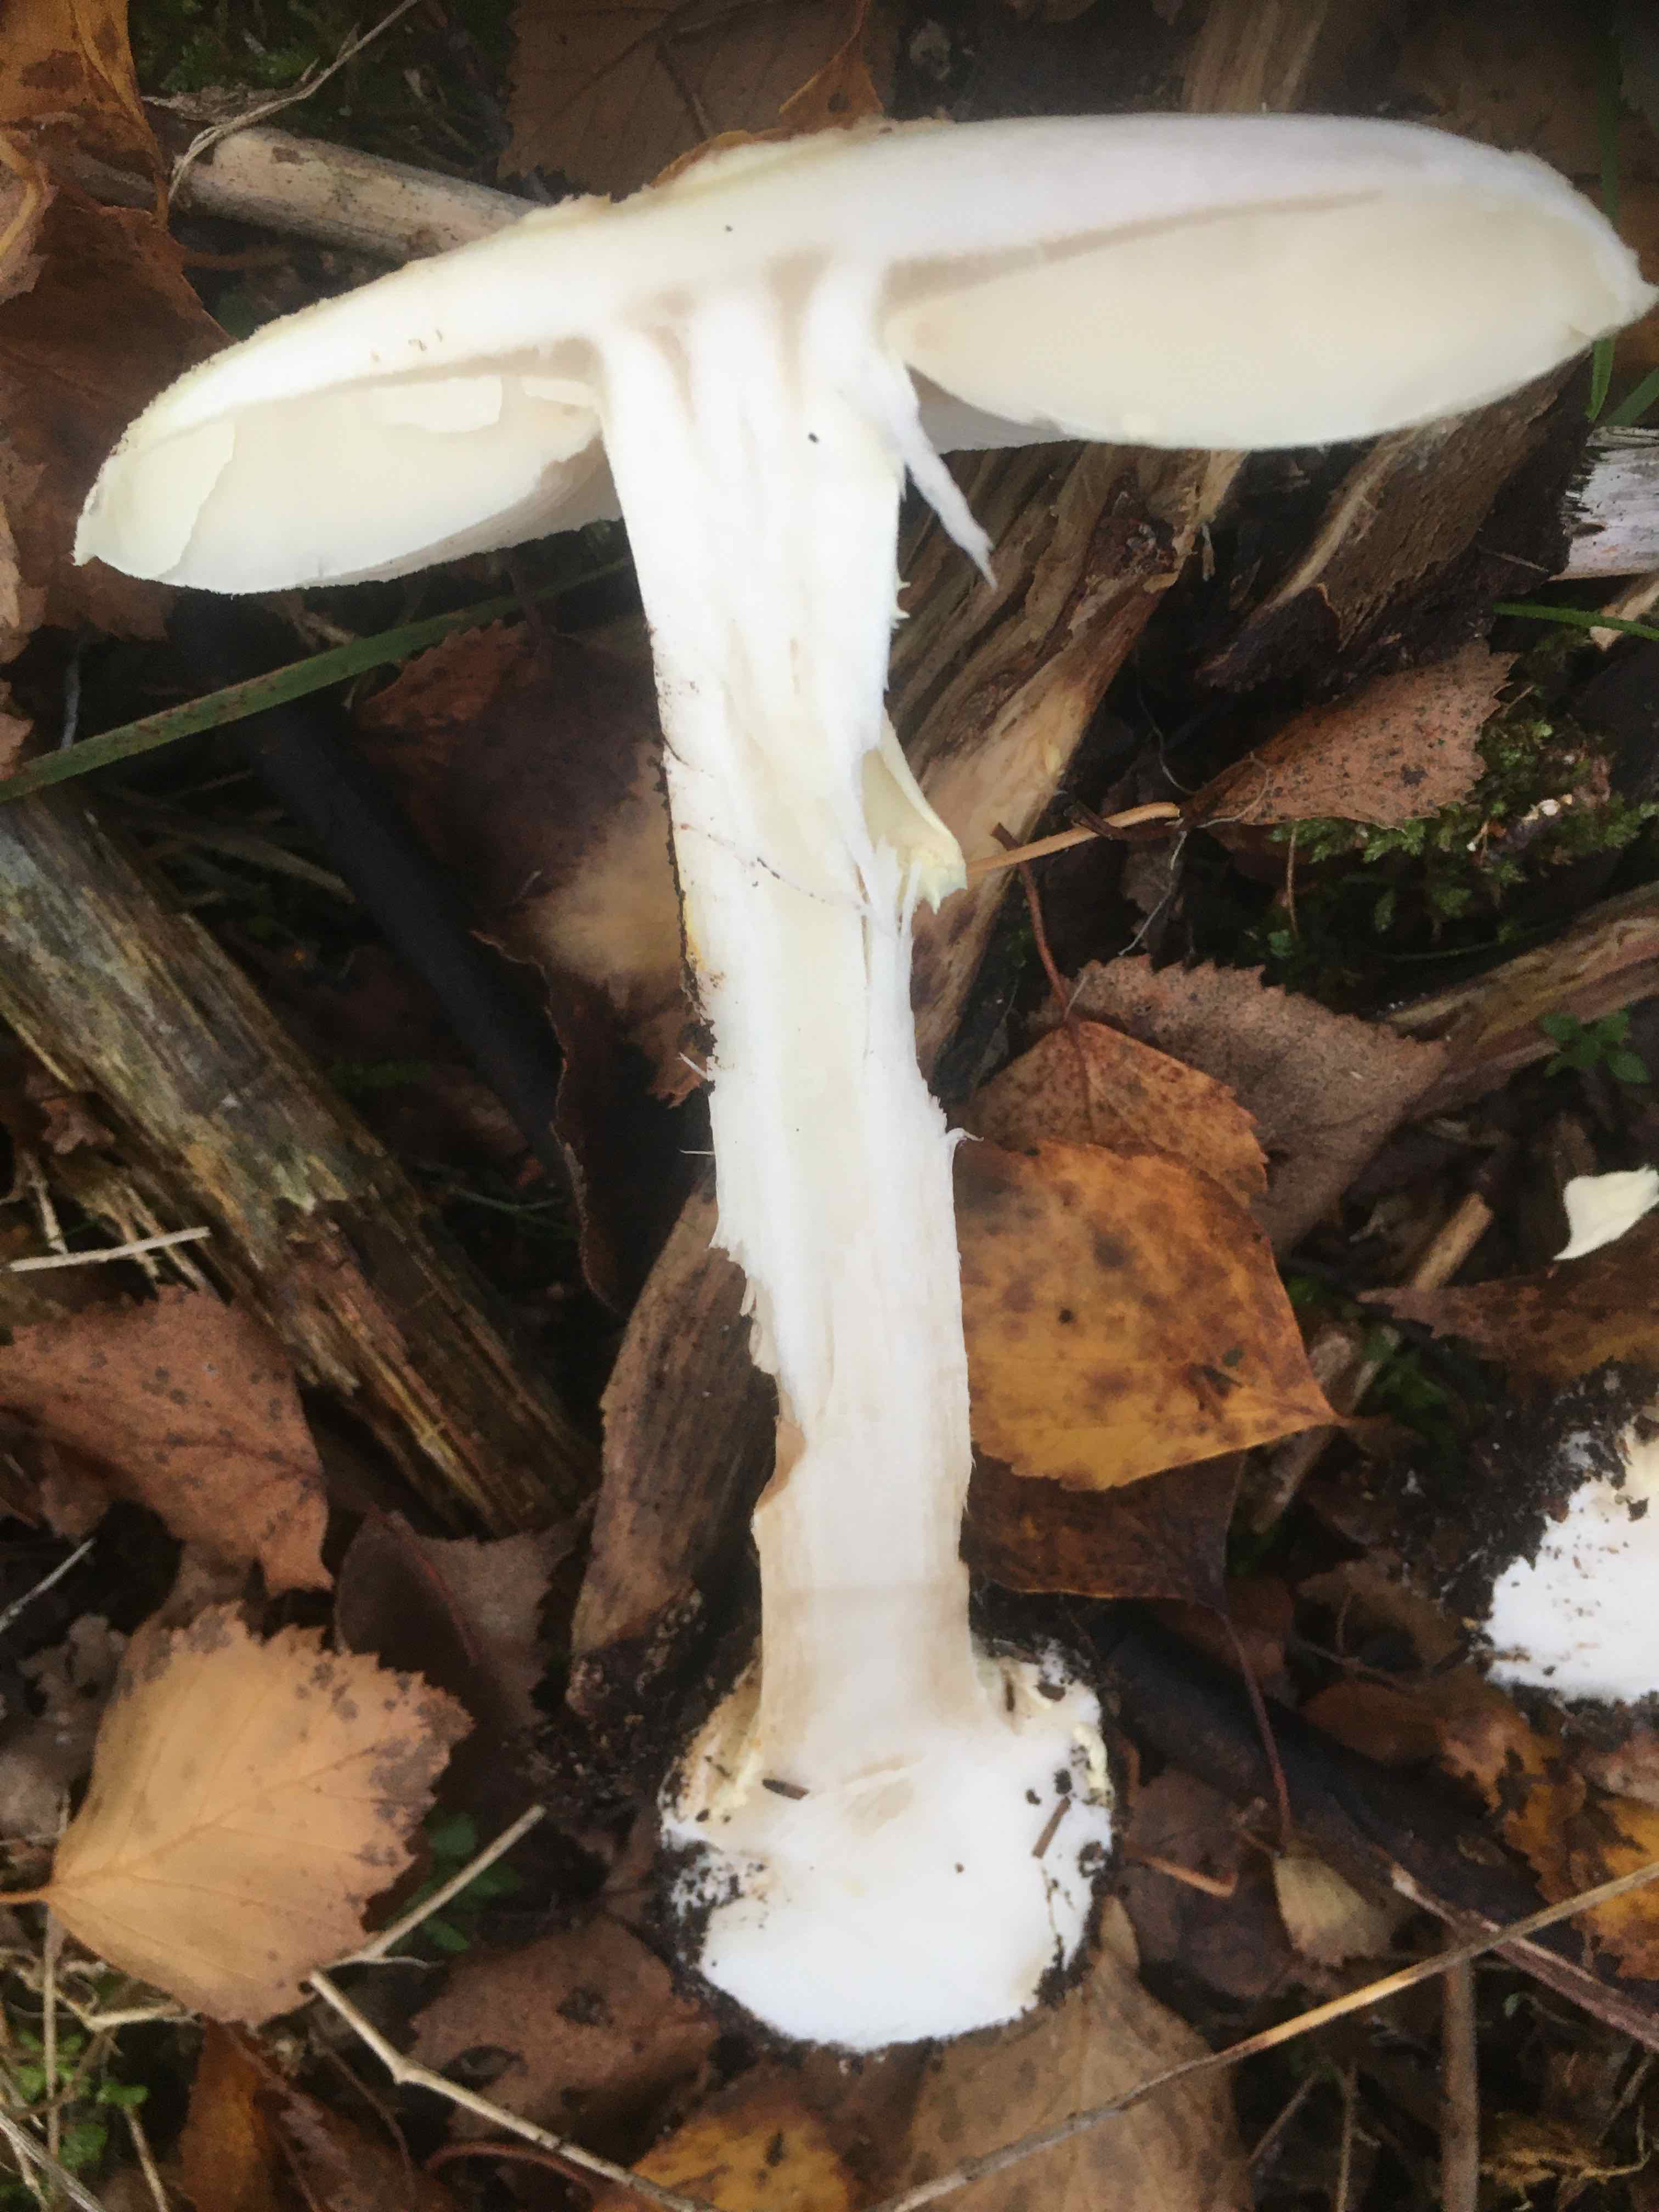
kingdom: Fungi
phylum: Basidiomycota
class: Agaricomycetes
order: Agaricales
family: Amanitaceae
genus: Amanita
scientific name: Amanita citrina
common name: kugleknoldet fluesvamp
